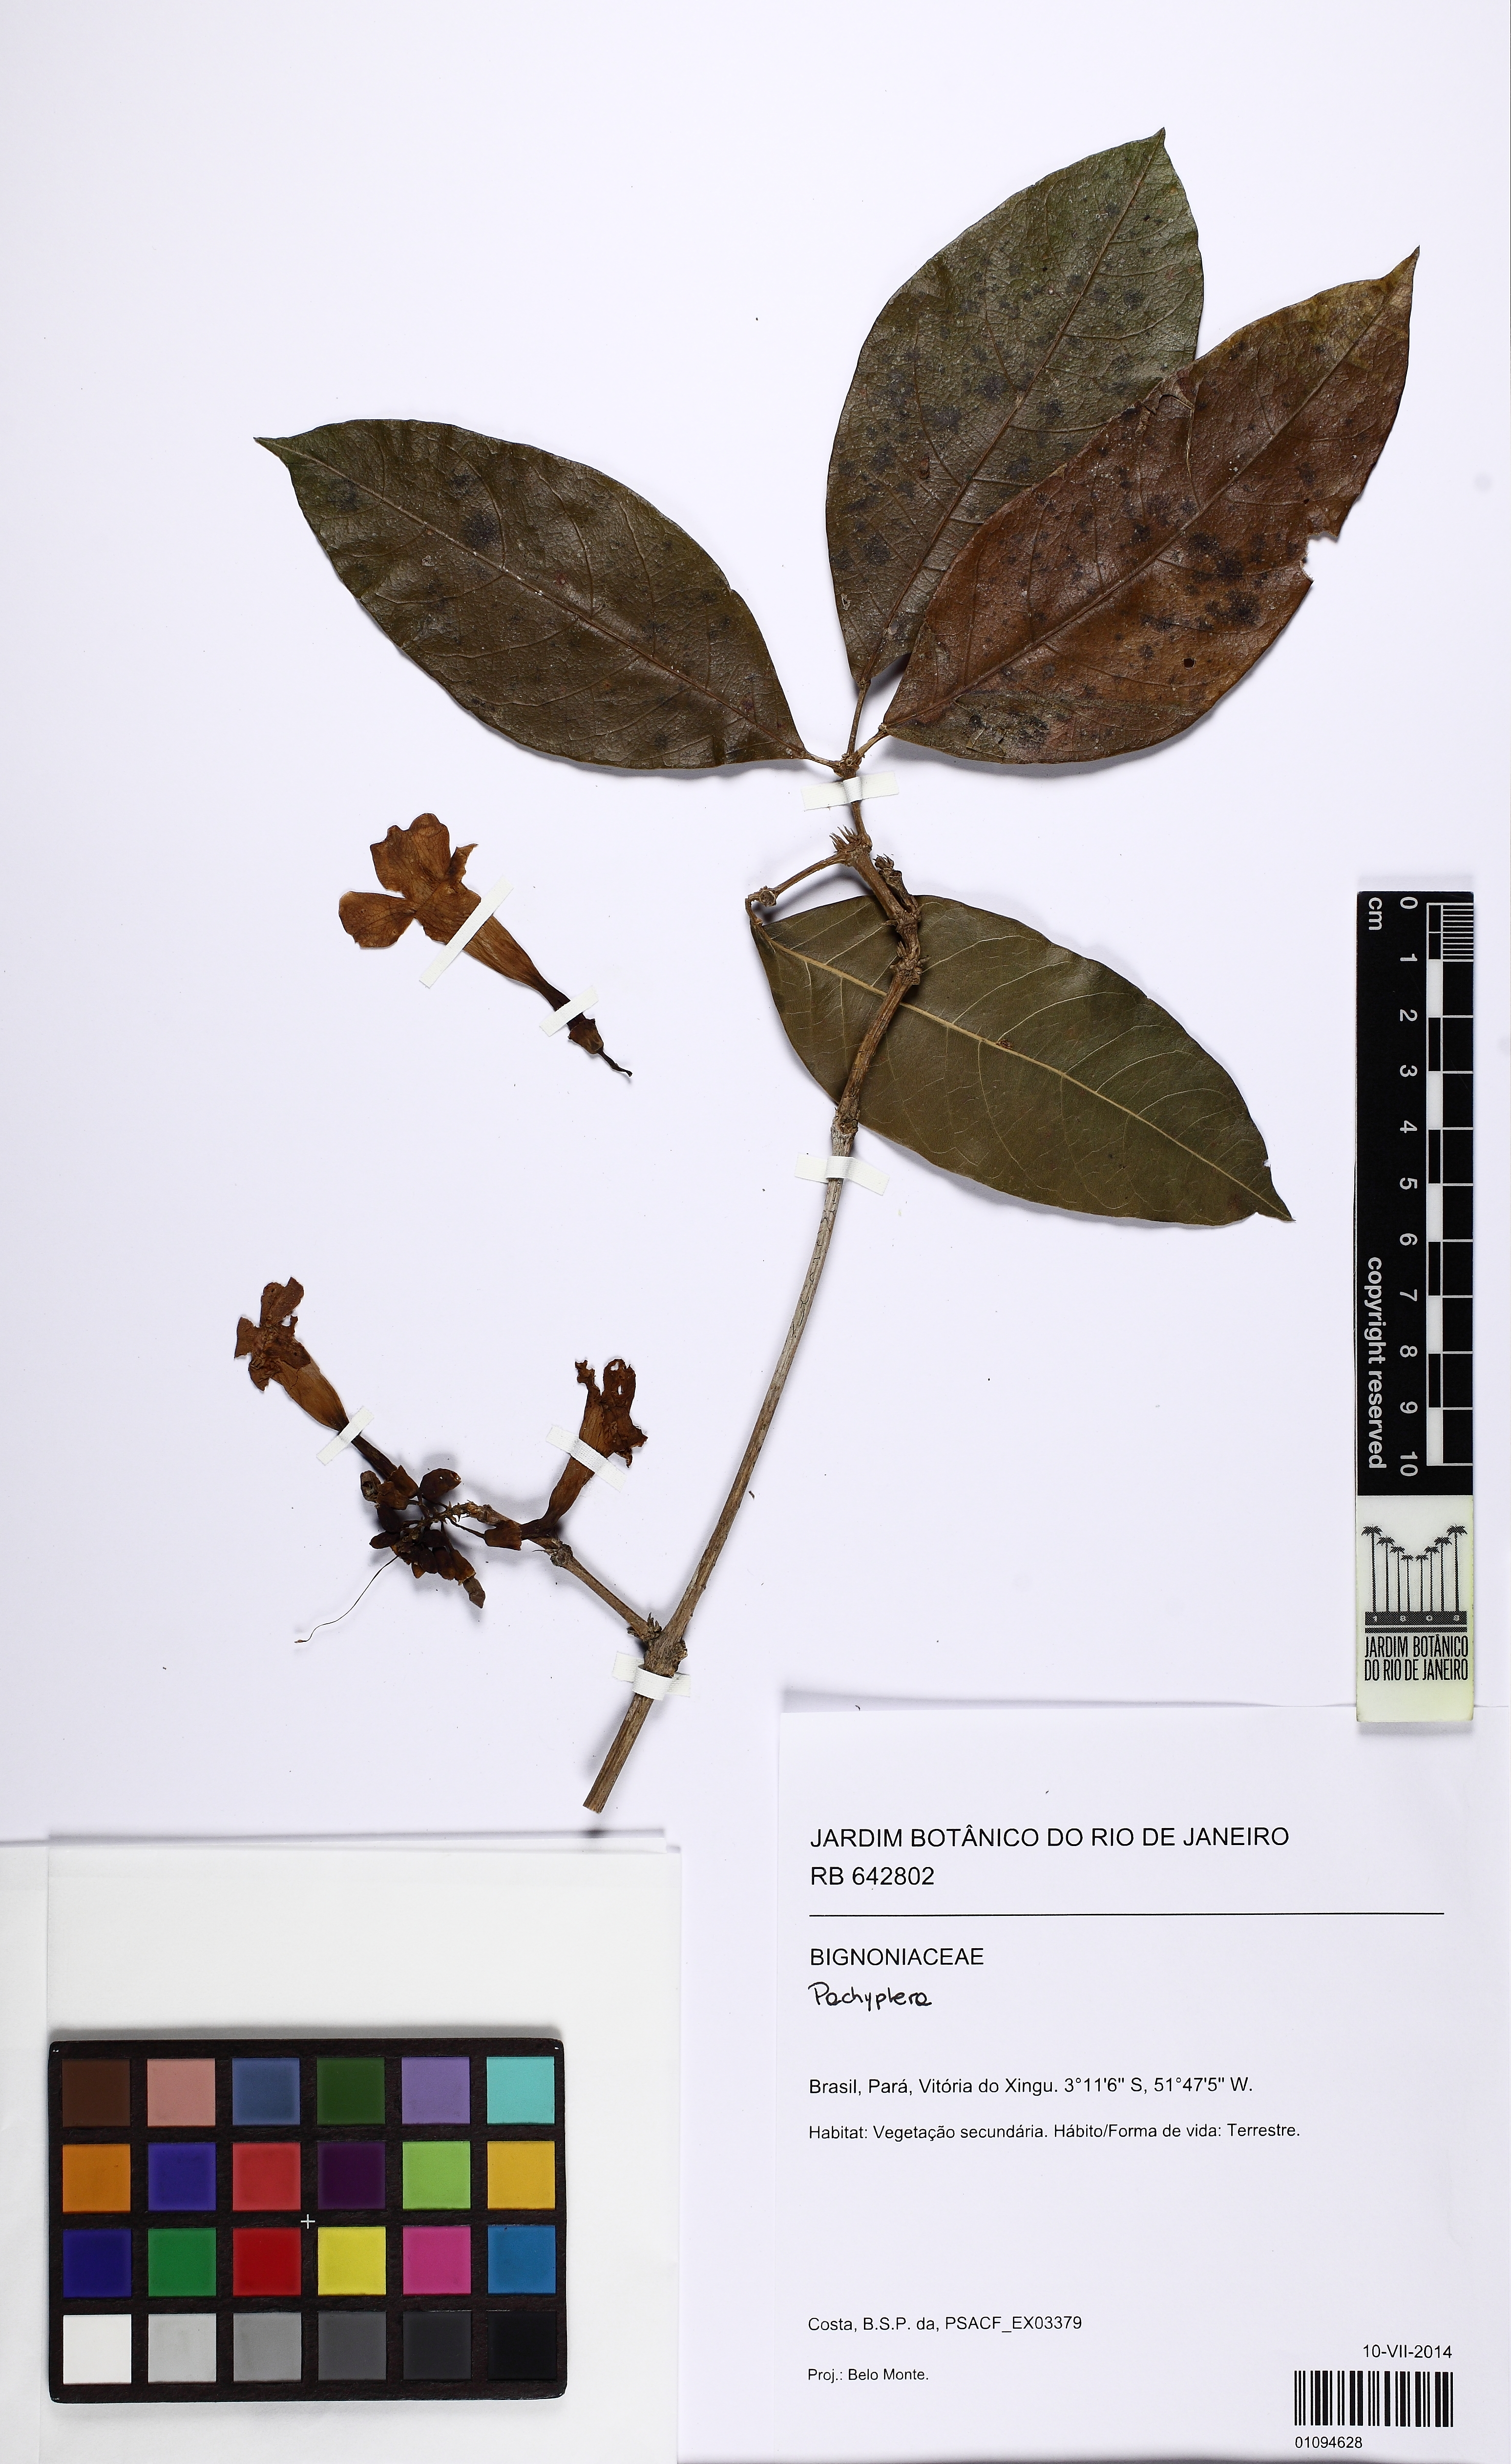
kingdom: Plantae
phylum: Tracheophyta
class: Magnoliopsida
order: Lamiales
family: Bignoniaceae
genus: Pachyptera
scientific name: Pachyptera
